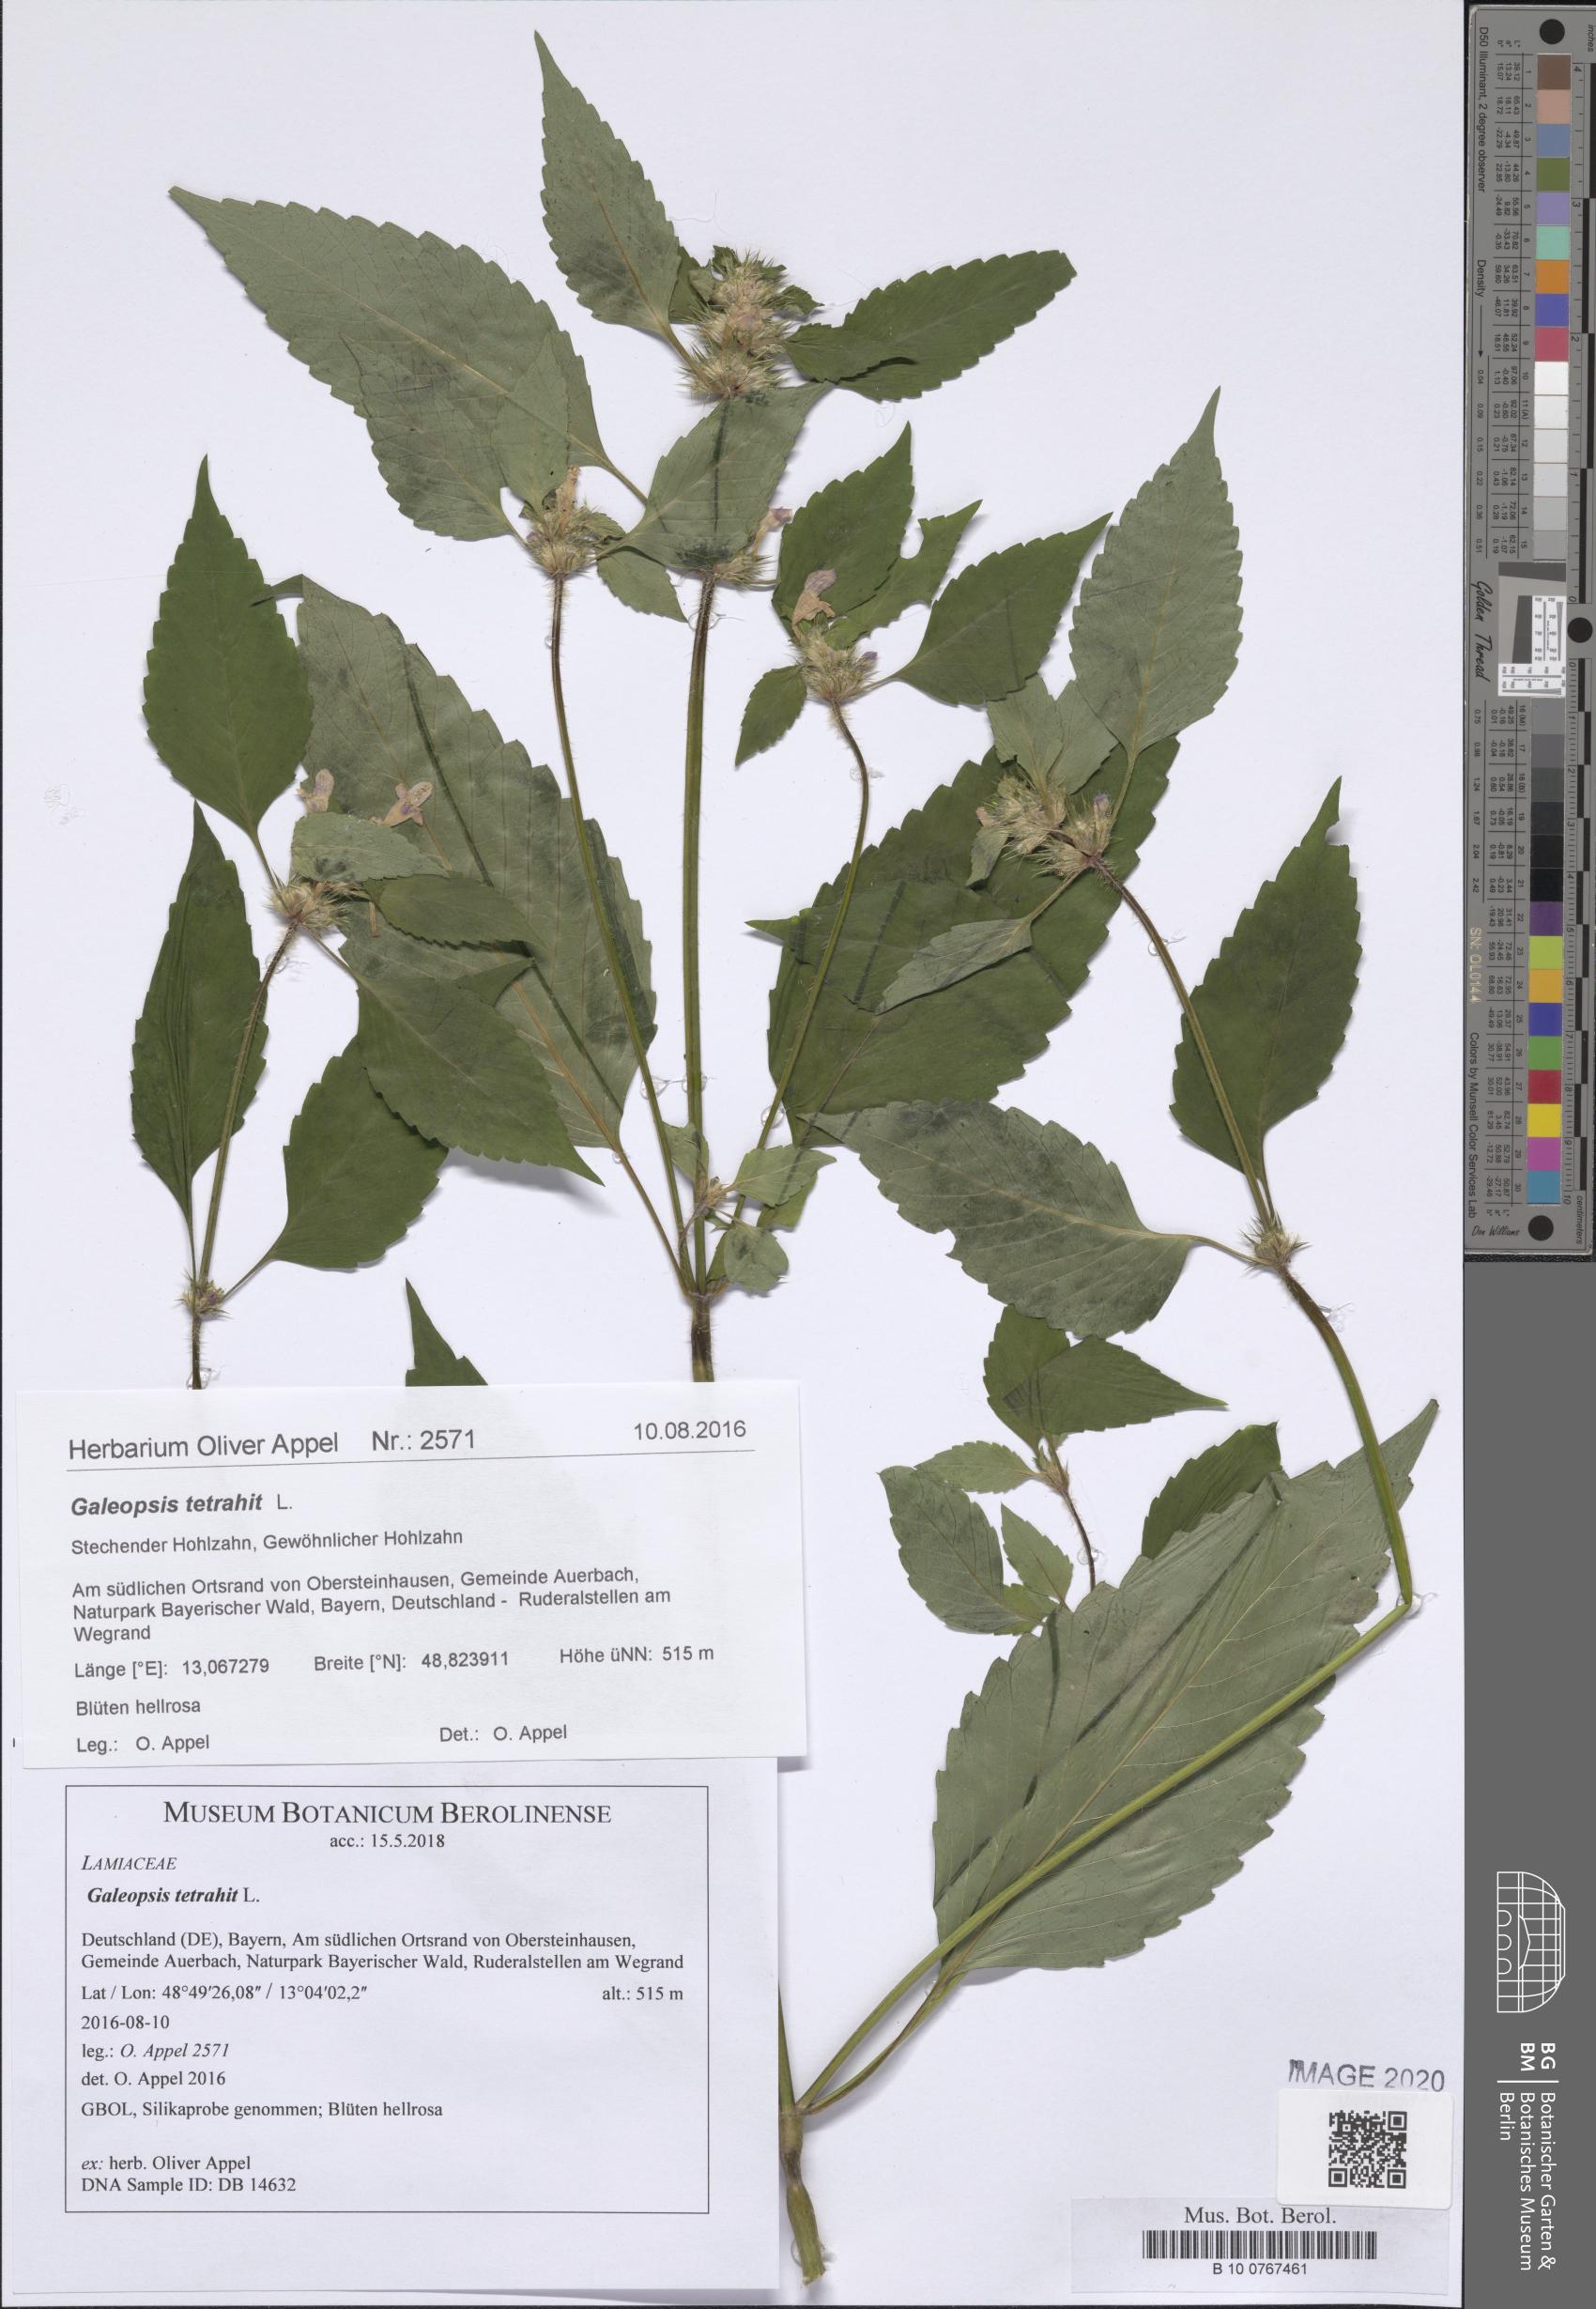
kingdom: Plantae
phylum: Tracheophyta
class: Magnoliopsida
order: Lamiales
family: Lamiaceae
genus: Galeopsis
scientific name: Galeopsis tetrahit
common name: Common hemp-nettle
